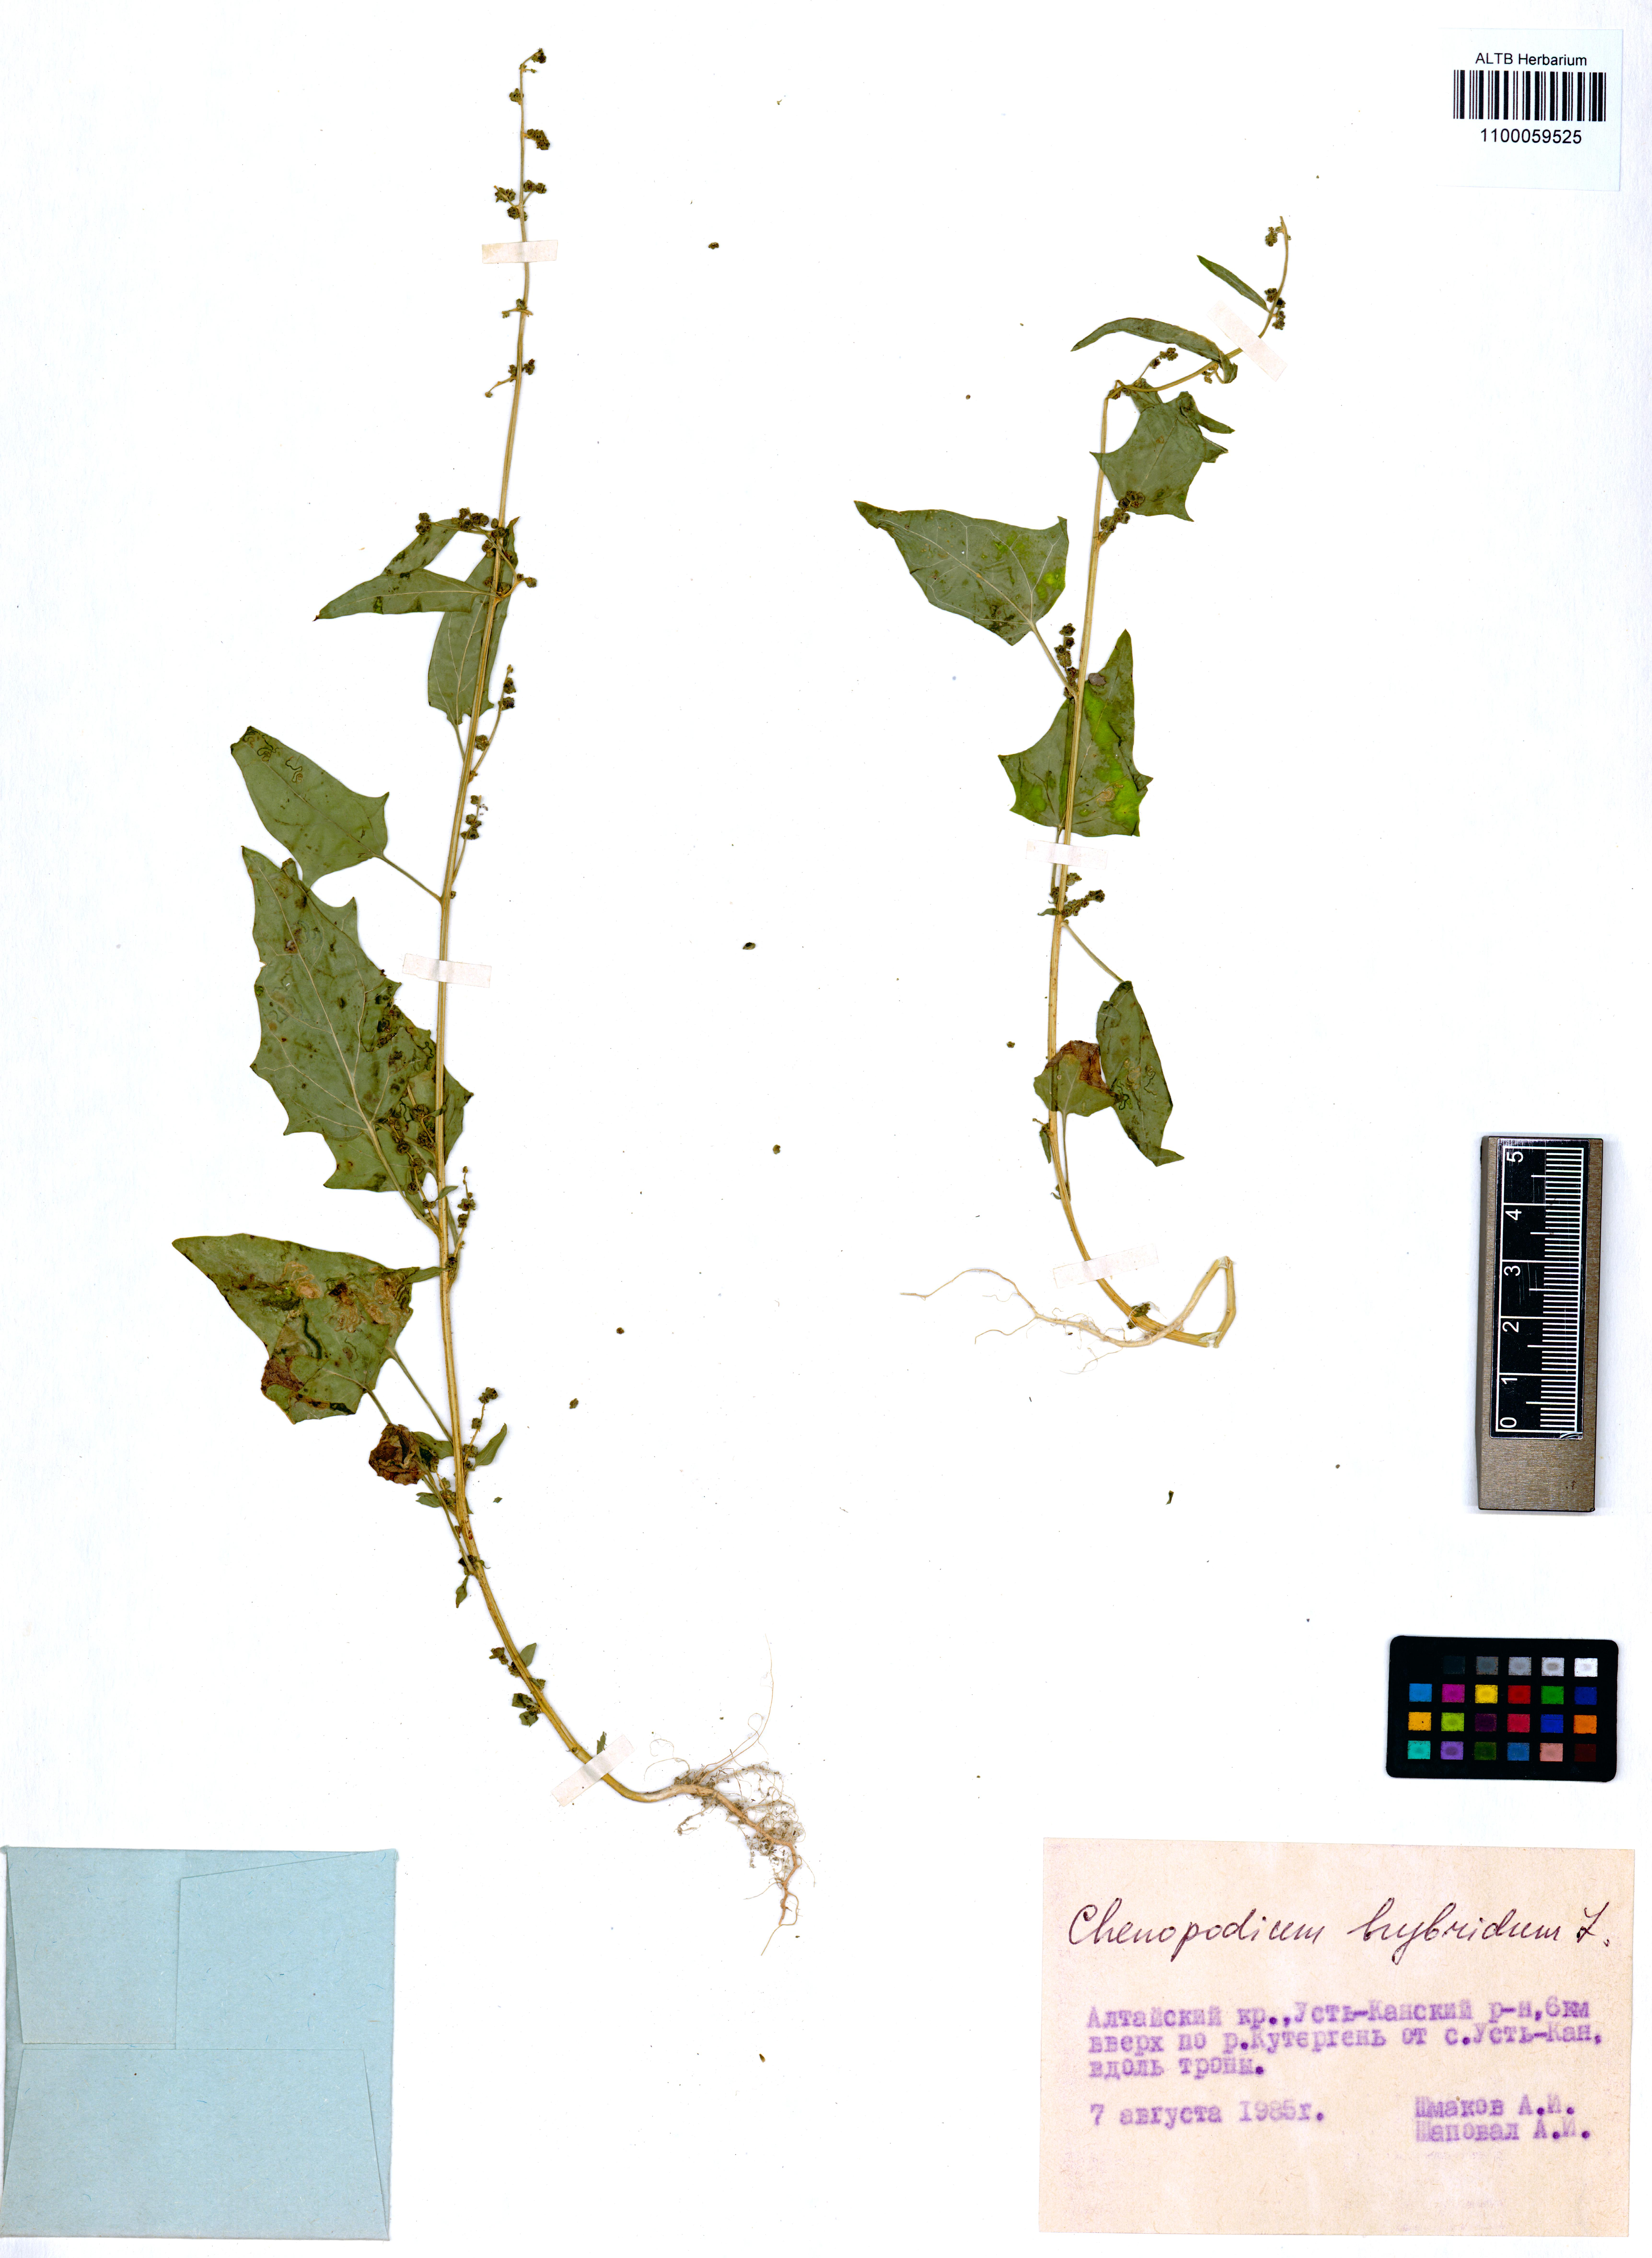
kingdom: Plantae
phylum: Tracheophyta
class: Magnoliopsida
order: Caryophyllales
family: Amaranthaceae
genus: Chenopodiastrum
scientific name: Chenopodiastrum hybridum
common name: Mapleleaf goosefoot
